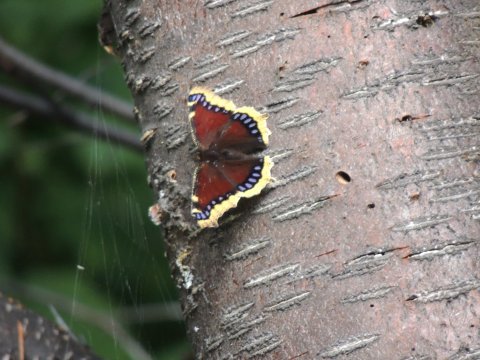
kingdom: Animalia
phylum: Arthropoda
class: Insecta
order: Lepidoptera
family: Nymphalidae
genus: Nymphalis
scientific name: Nymphalis antiopa
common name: Mourning Cloak
